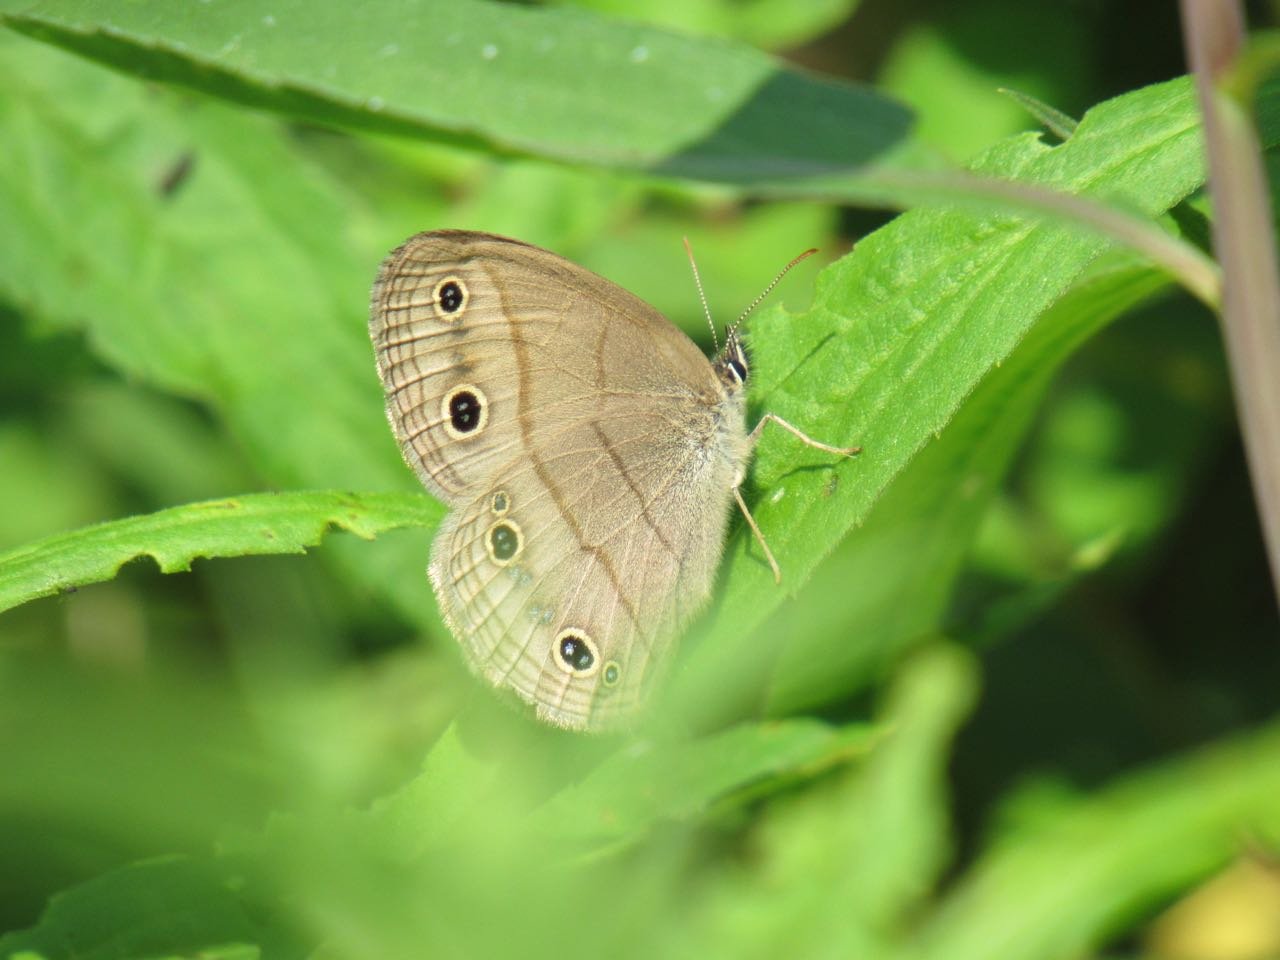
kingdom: Animalia
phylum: Arthropoda
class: Insecta
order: Lepidoptera
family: Nymphalidae
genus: Euptychia
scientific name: Euptychia cymela
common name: Little Wood Satyr
